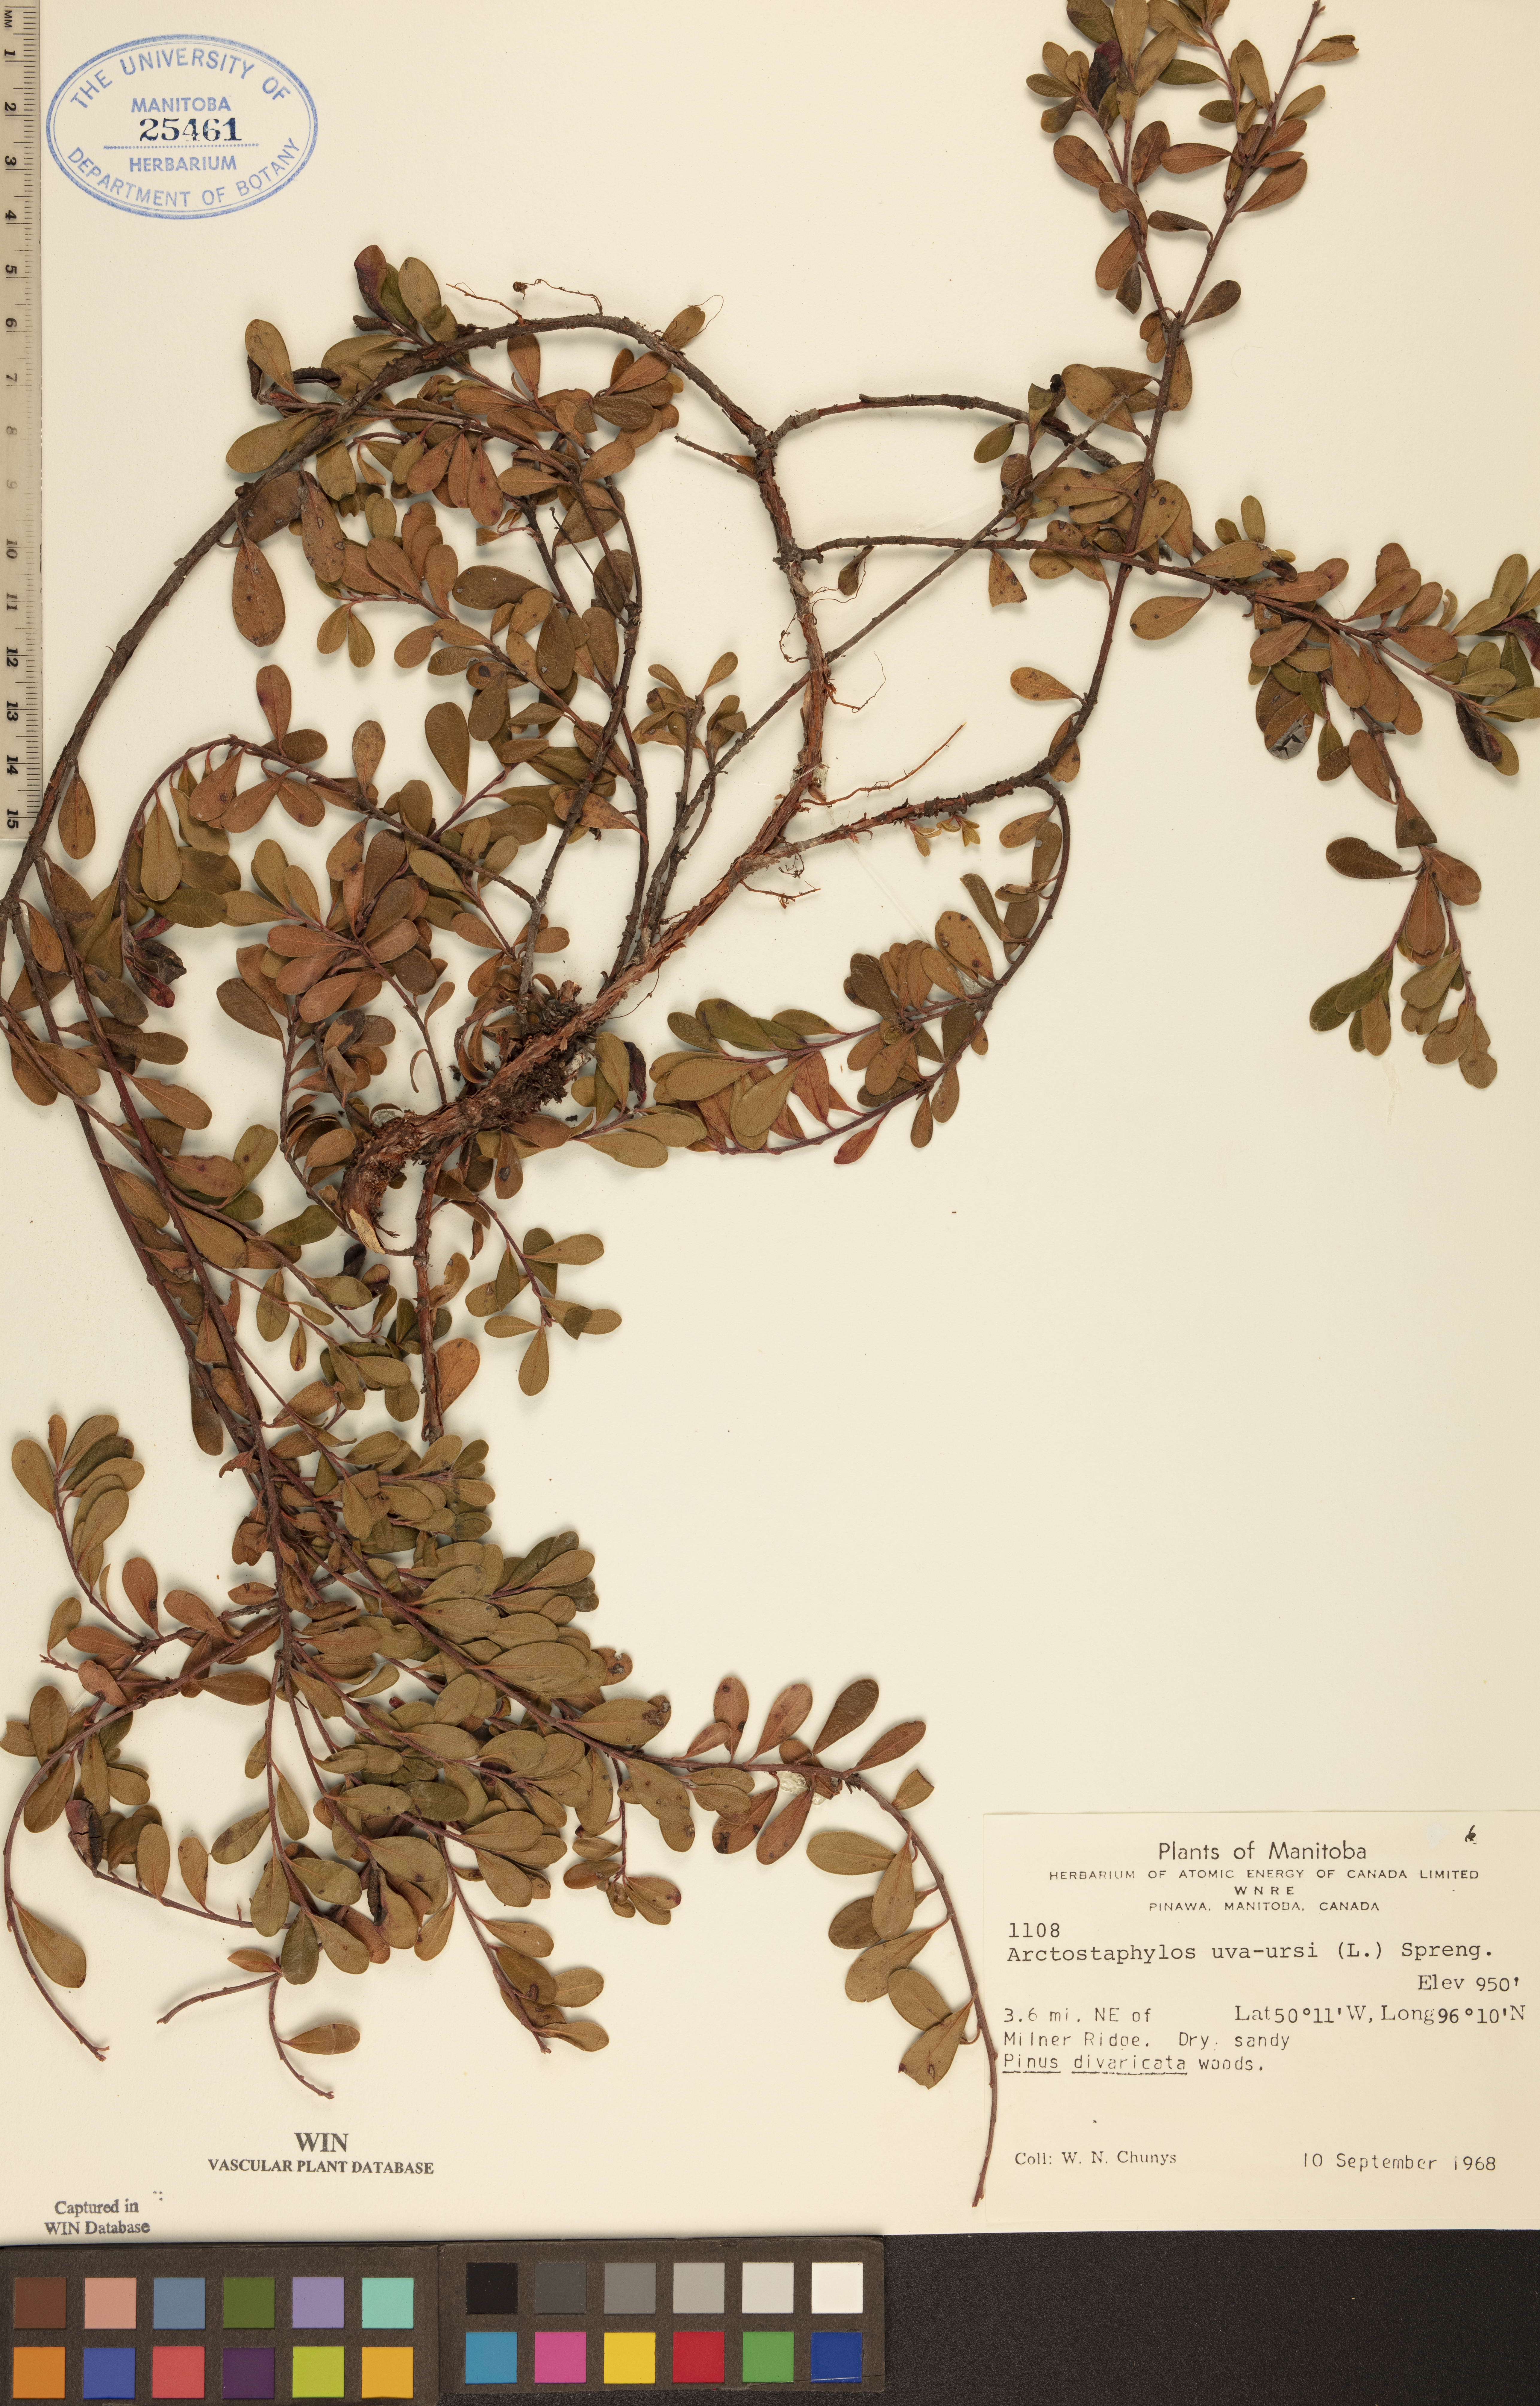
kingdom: Plantae
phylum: Tracheophyta
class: Magnoliopsida
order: Ericales
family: Ericaceae
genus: Arctostaphylos
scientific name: Arctostaphylos uva-ursi
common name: Bearberry
